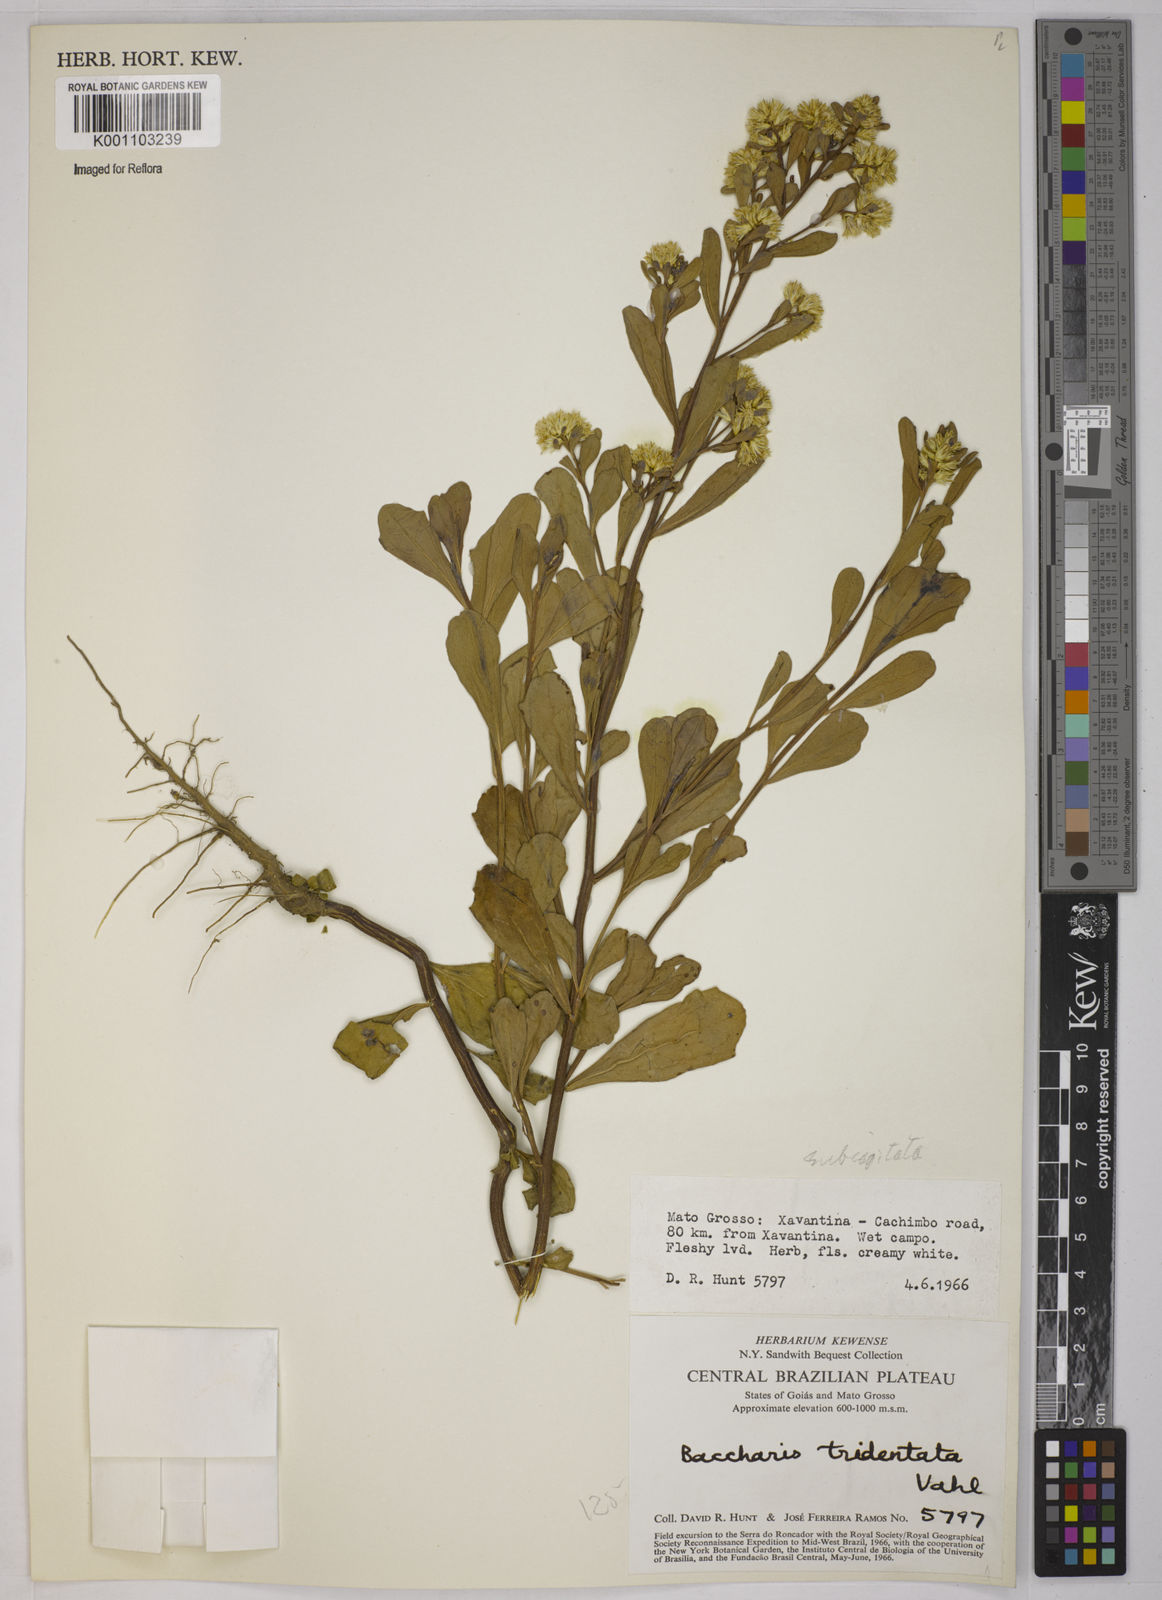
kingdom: Plantae
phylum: Tracheophyta
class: Magnoliopsida
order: Asterales
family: Asteraceae
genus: Baccharis
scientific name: Baccharis subdentata
